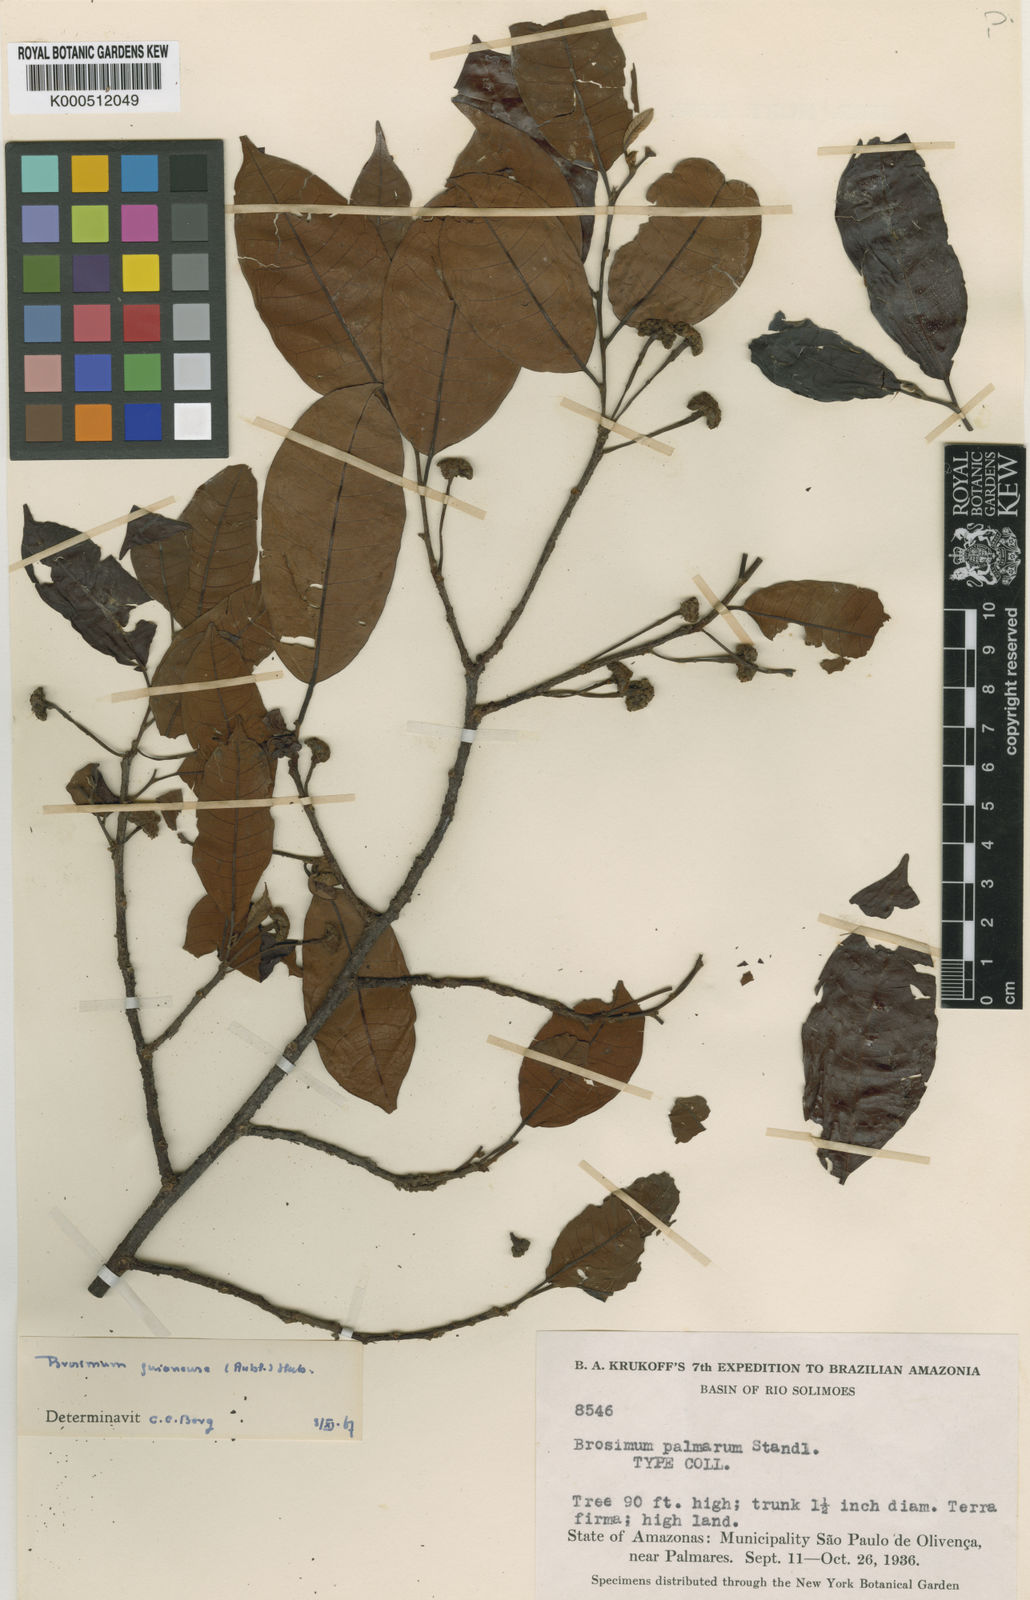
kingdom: Plantae
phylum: Tracheophyta
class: Magnoliopsida
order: Rosales
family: Moraceae
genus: Brosimum
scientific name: Brosimum
